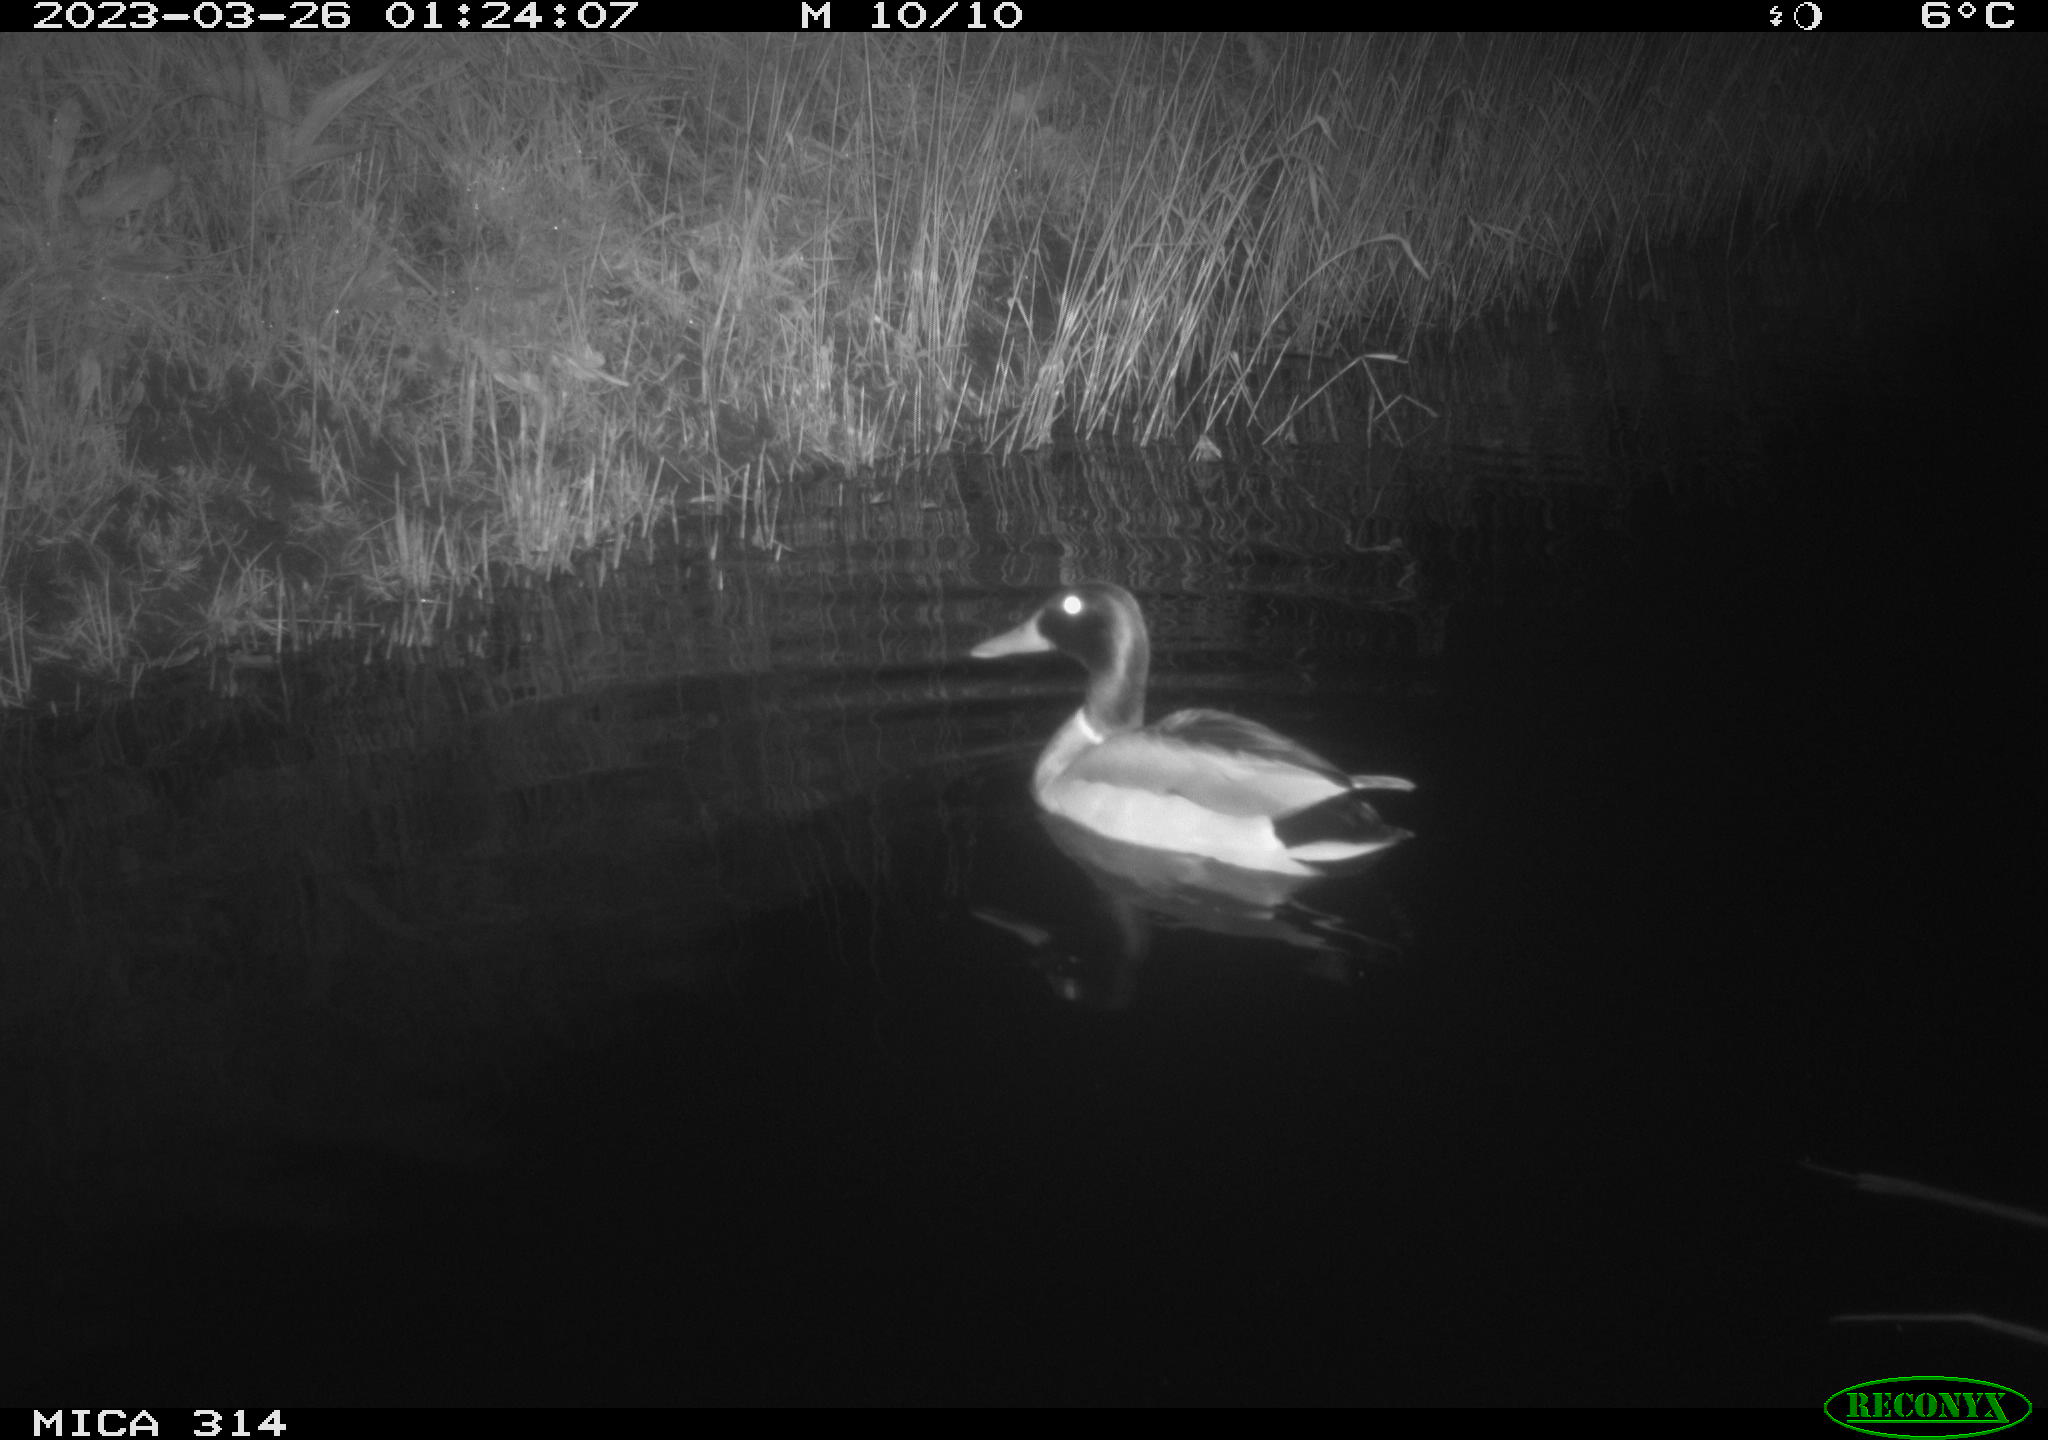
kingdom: Animalia
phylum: Chordata
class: Aves
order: Anseriformes
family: Anatidae
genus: Anas
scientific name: Anas
